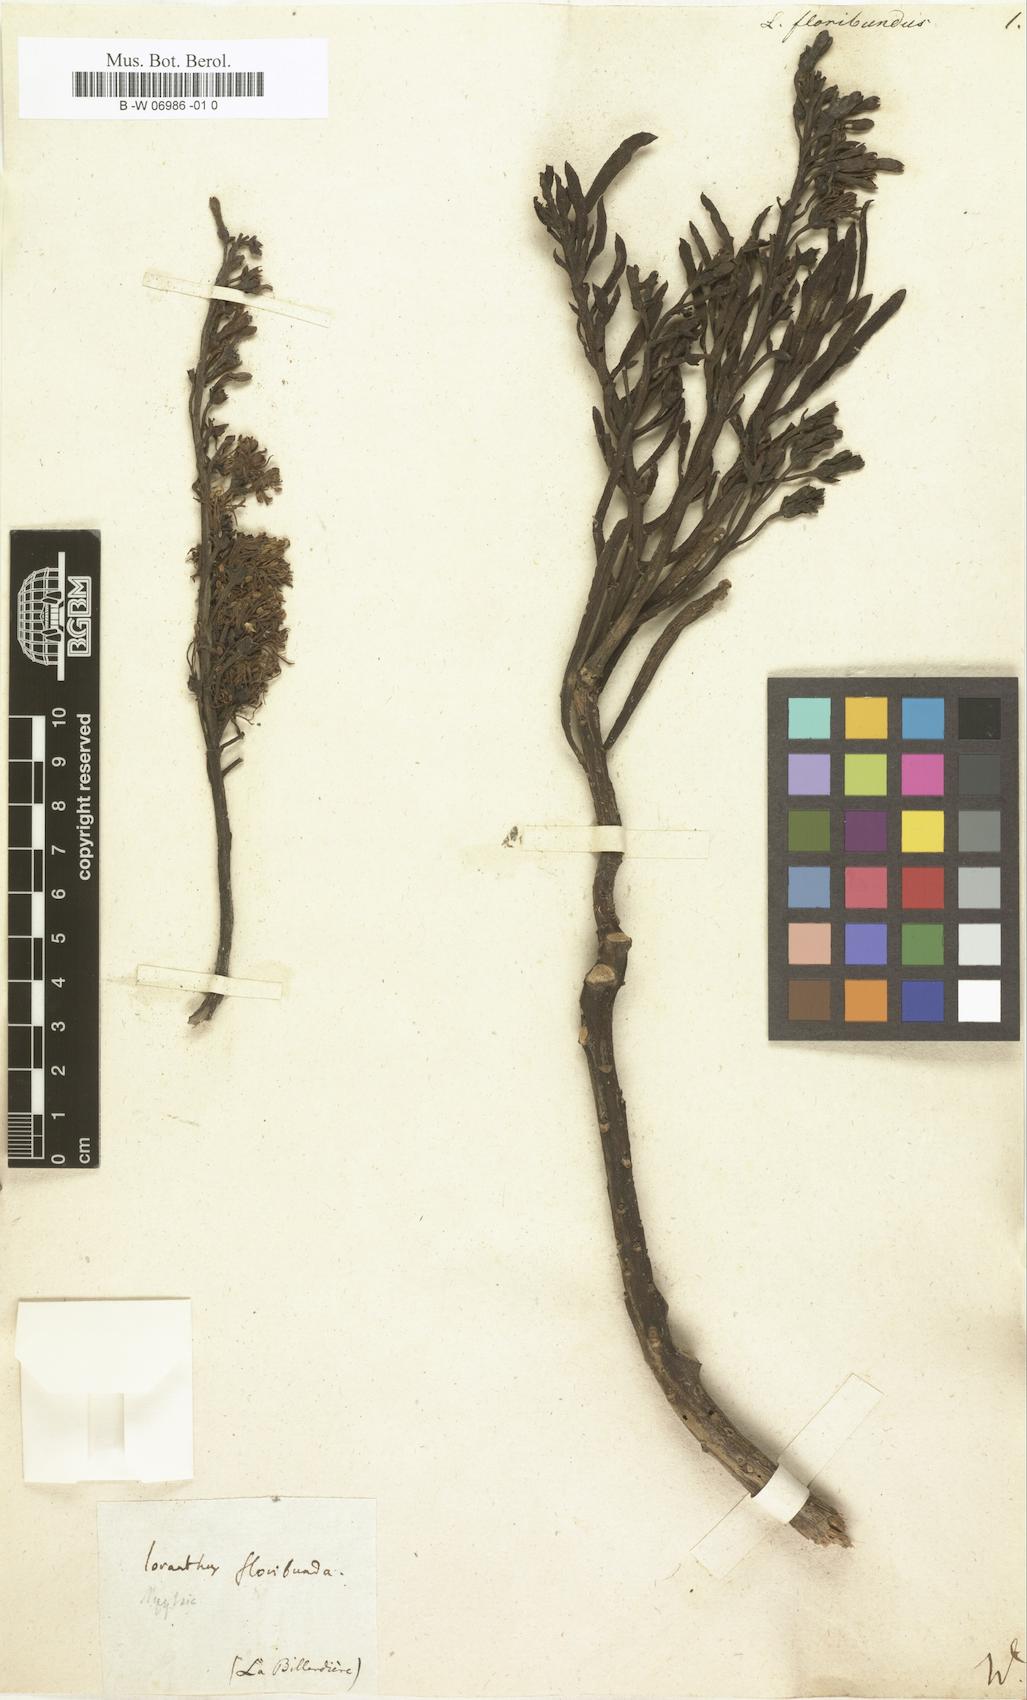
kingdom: Plantae
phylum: Tracheophyta
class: Magnoliopsida
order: Santalales
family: Loranthaceae
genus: Nuytsia
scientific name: Nuytsia floribunda
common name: Western australian christmastree
